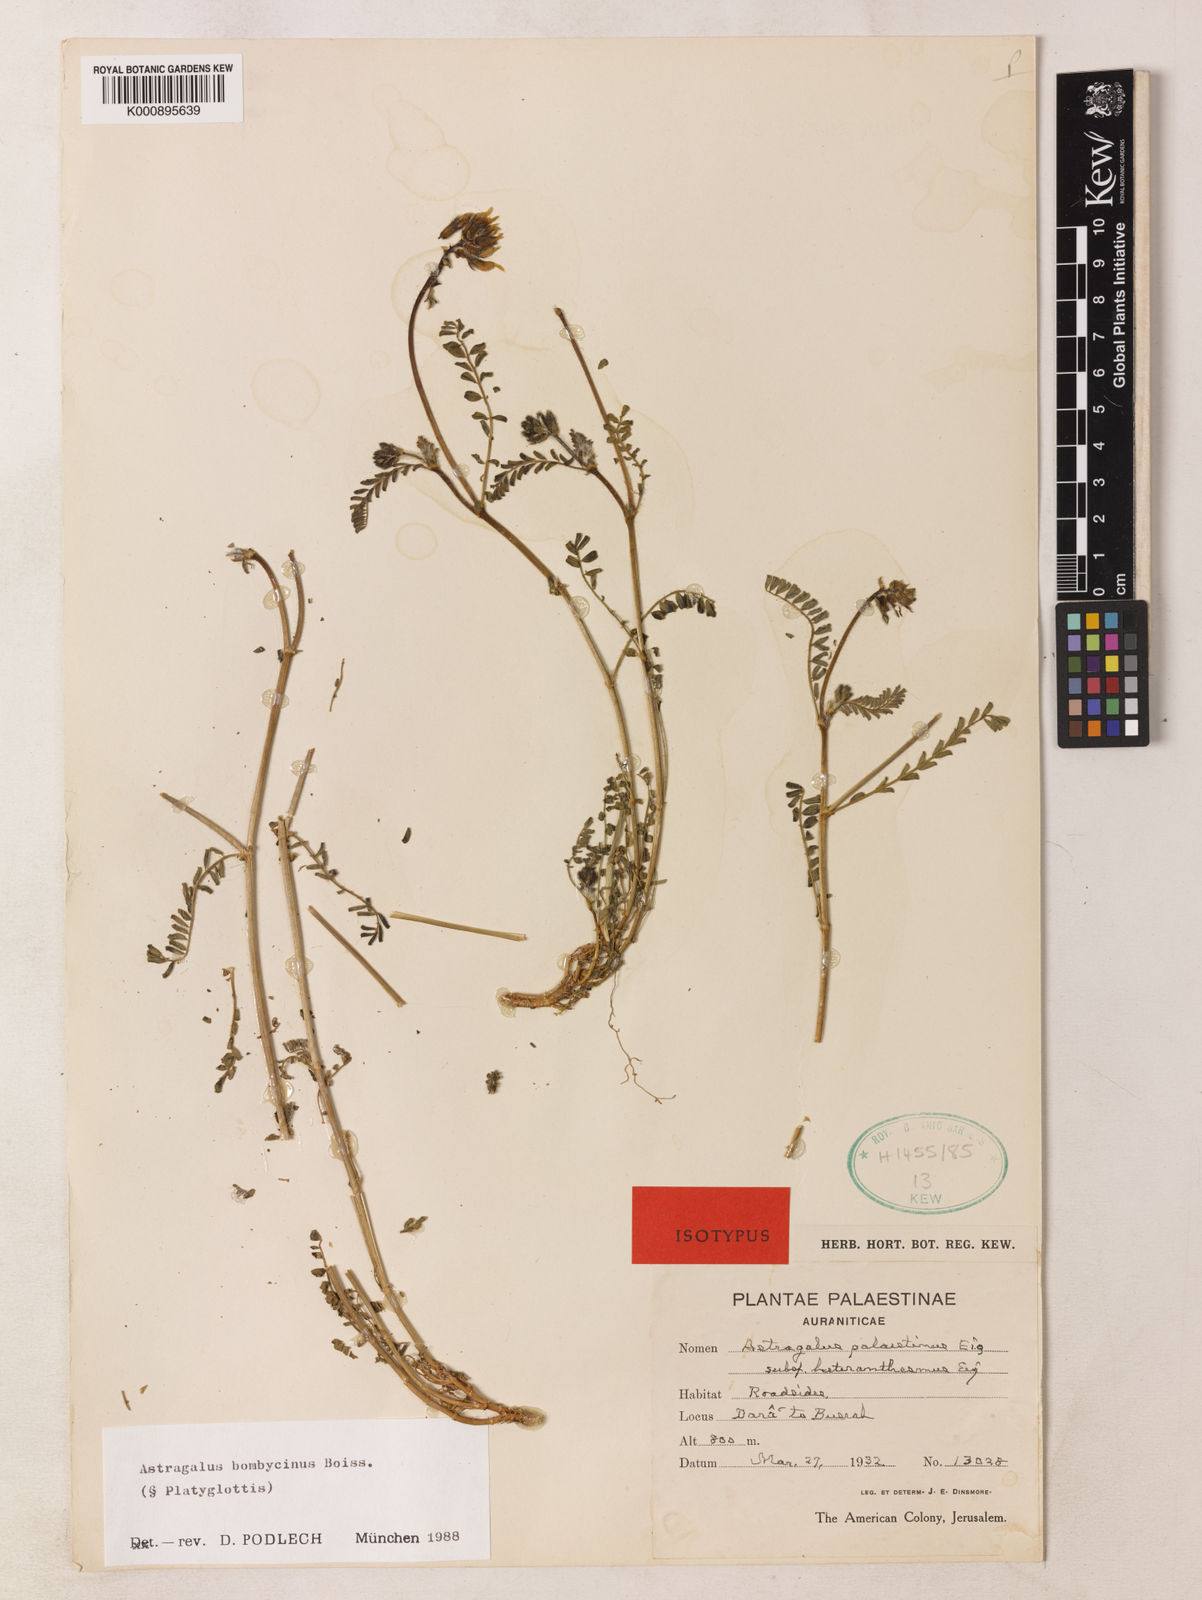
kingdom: Plantae
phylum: Tracheophyta
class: Magnoliopsida
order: Fabales
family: Fabaceae
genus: Astragalus
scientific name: Astragalus bombycinus
